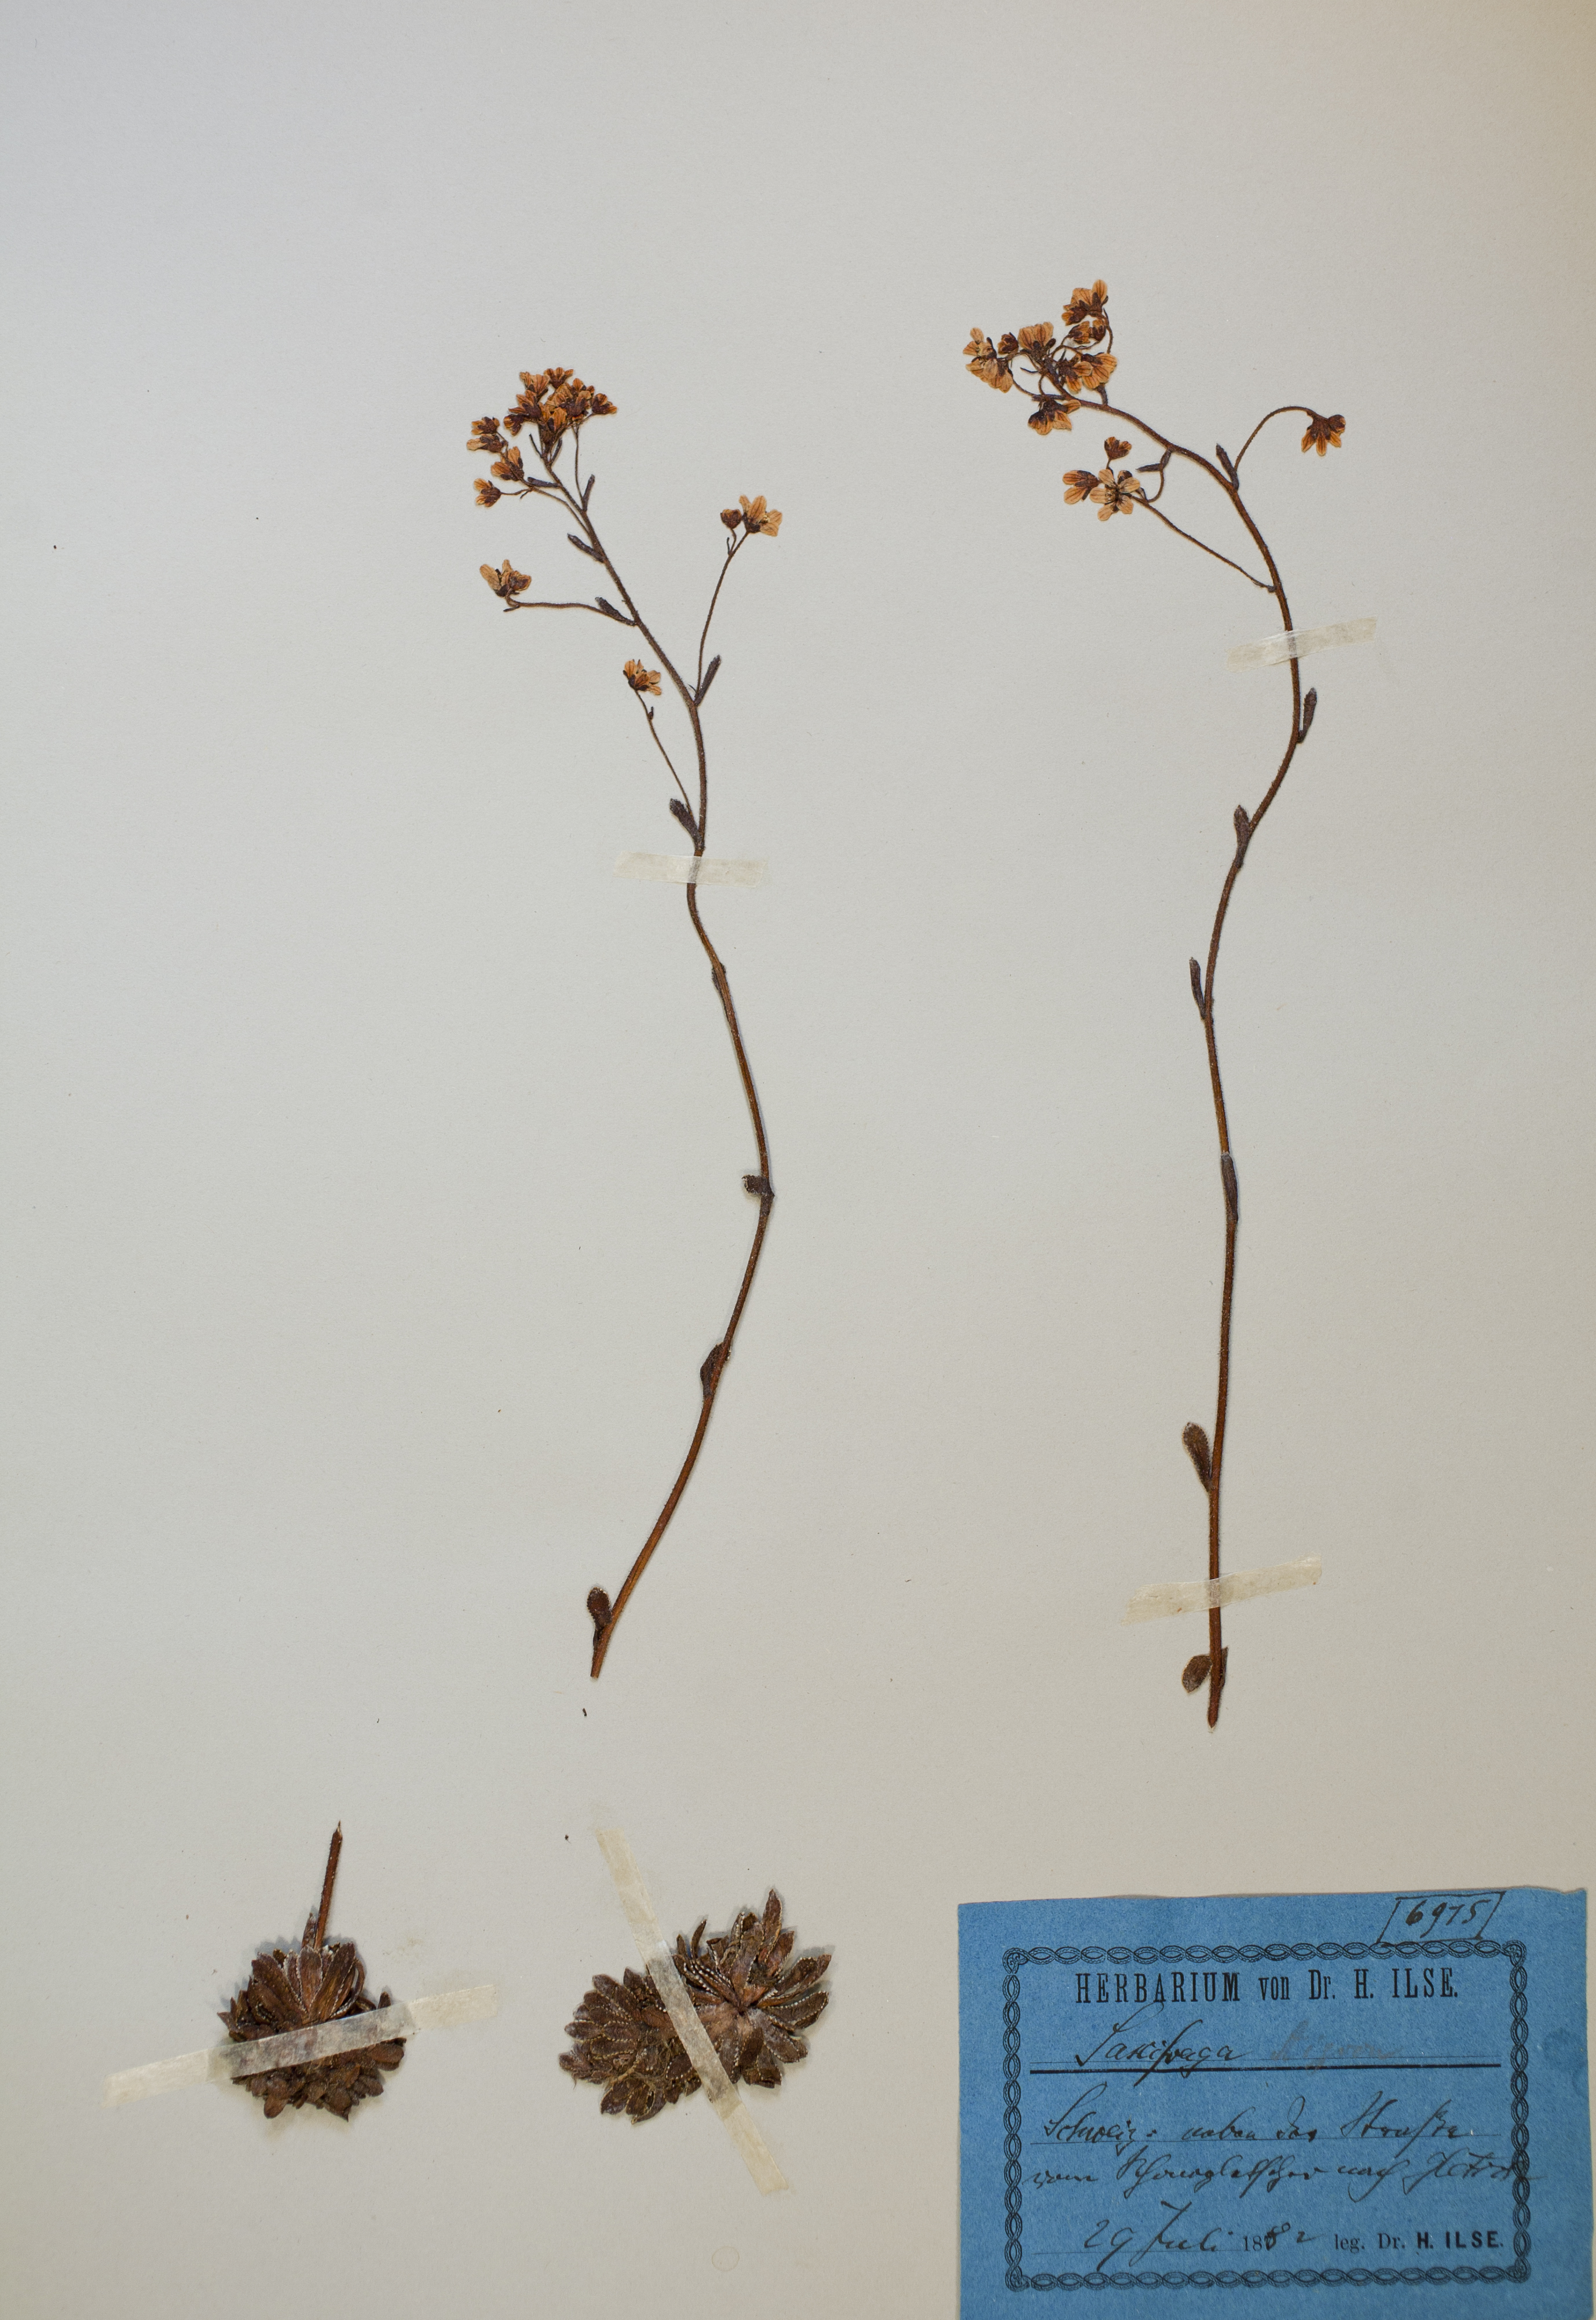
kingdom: Plantae
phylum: Tracheophyta
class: Magnoliopsida
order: Saxifragales
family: Saxifragaceae
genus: Saxifraga
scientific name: Saxifraga paniculata
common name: Livelong saxifrage
